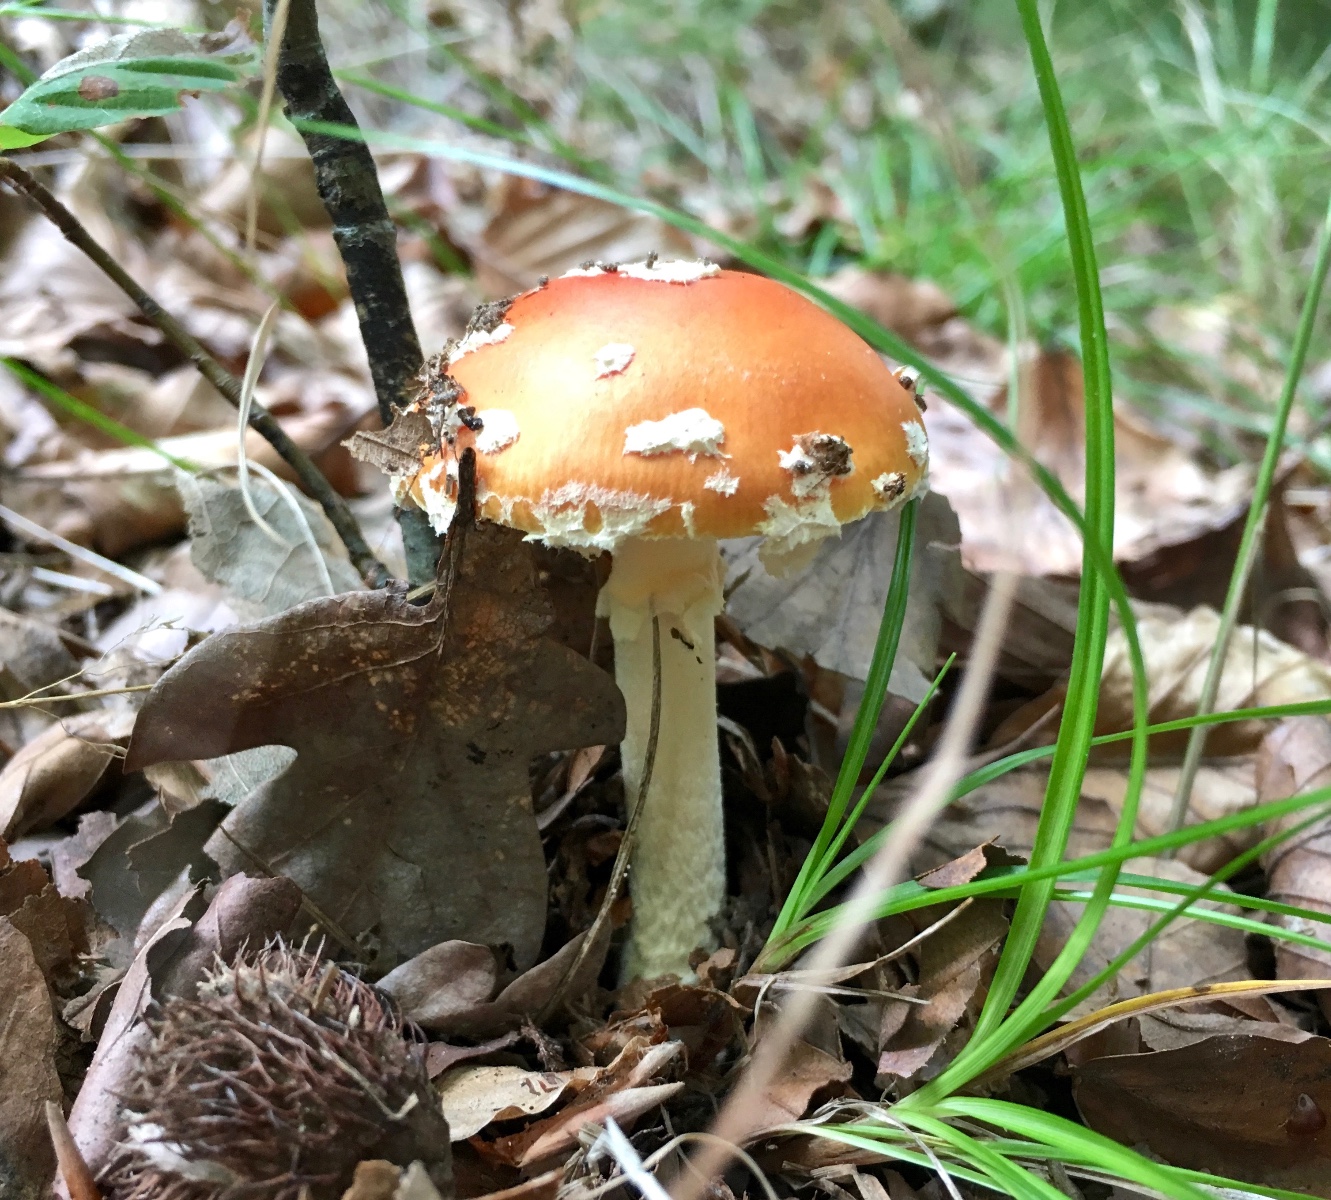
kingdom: Fungi
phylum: Basidiomycota
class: Agaricomycetes
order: Agaricales
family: Amanitaceae
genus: Amanita
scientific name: Amanita muscaria
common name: rød fluesvamp
